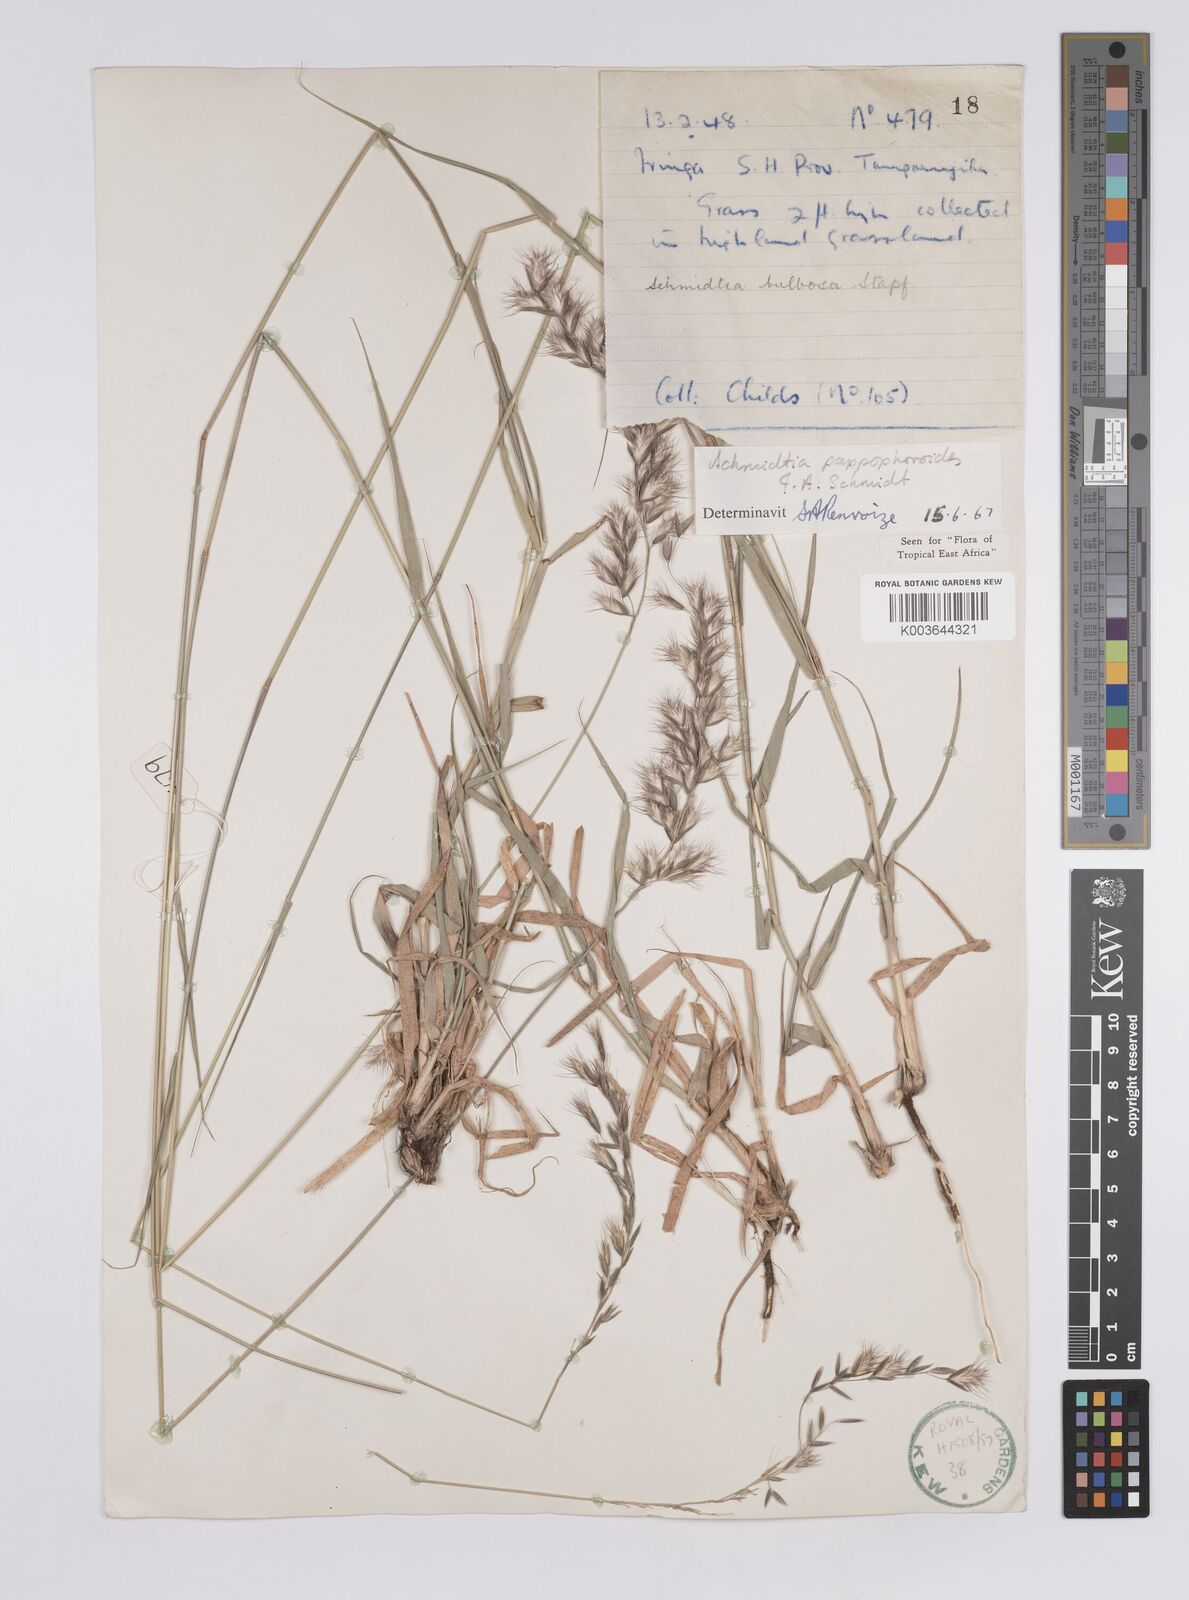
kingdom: Plantae
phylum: Tracheophyta
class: Liliopsida
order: Poales
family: Poaceae
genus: Schmidtia
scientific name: Schmidtia pappophoroides
